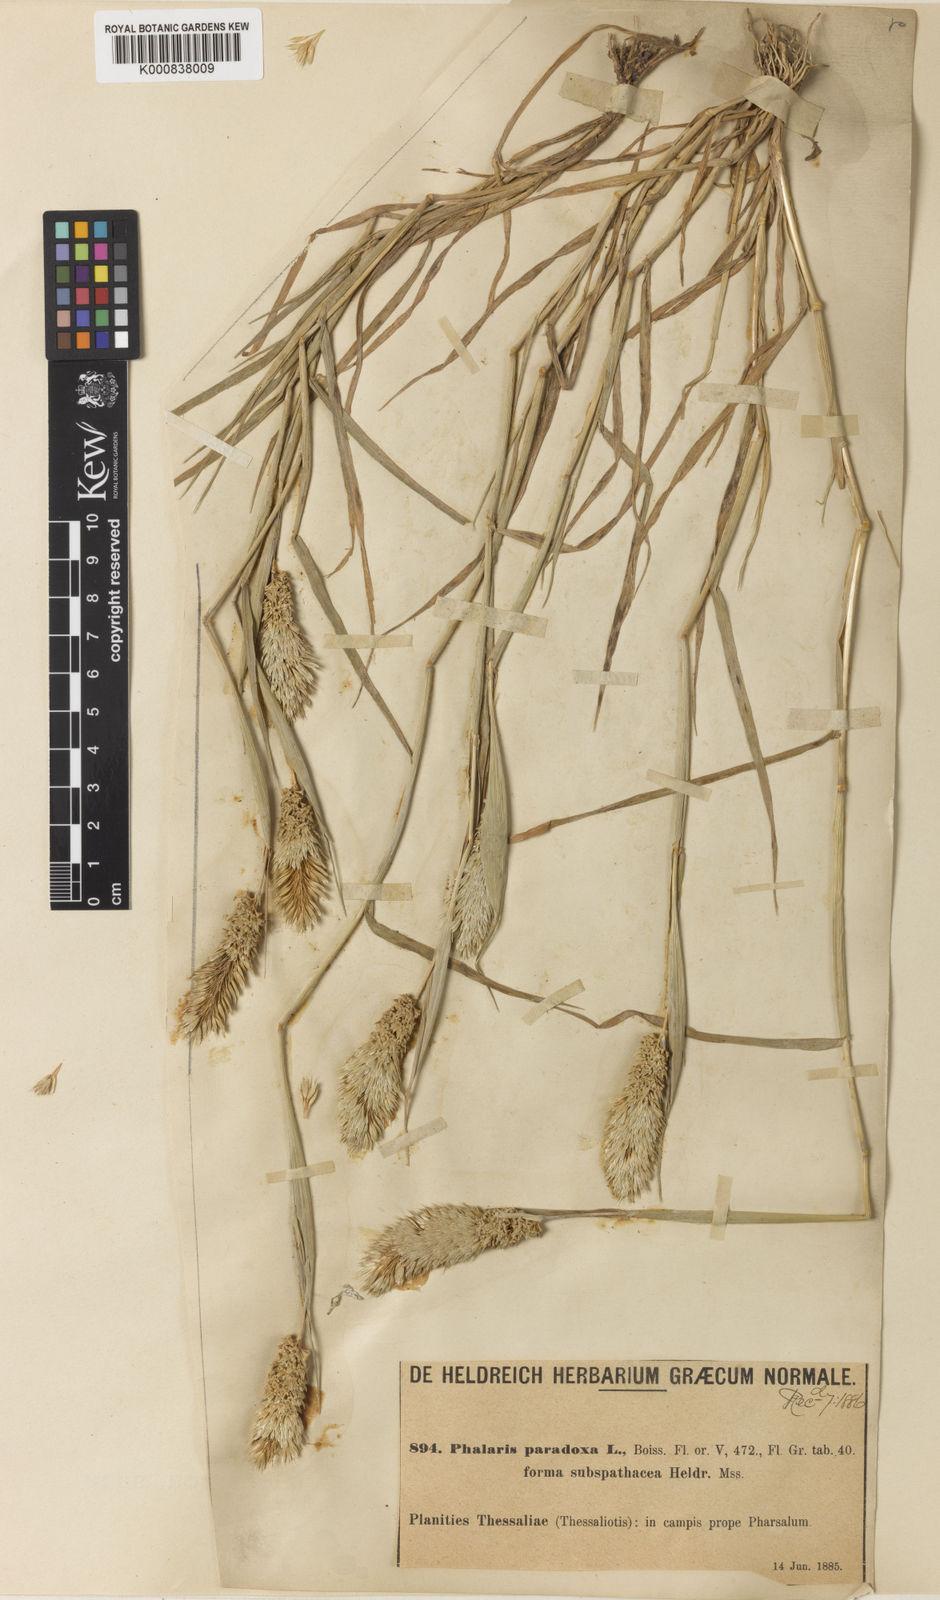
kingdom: Plantae
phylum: Tracheophyta
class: Liliopsida
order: Poales
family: Poaceae
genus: Phalaris
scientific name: Phalaris paradoxa
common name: Awned canary-grass
